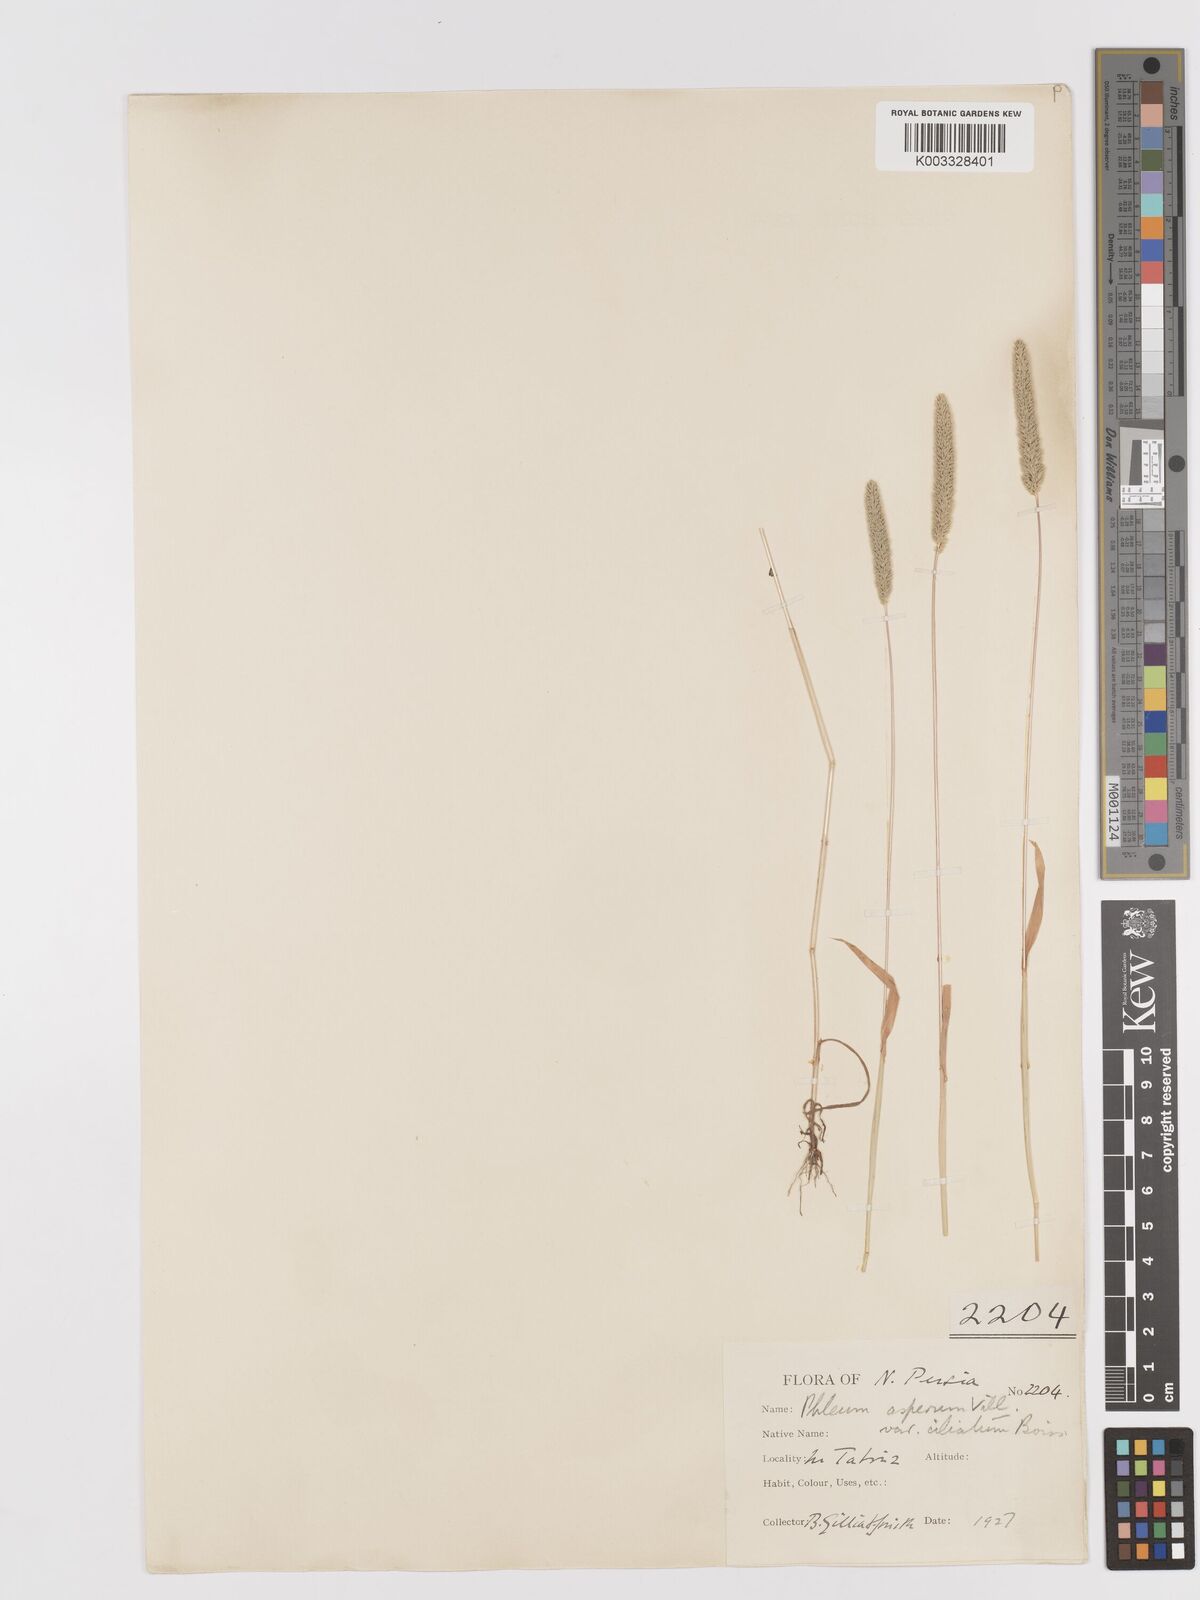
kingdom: Plantae
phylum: Tracheophyta
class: Liliopsida
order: Poales
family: Poaceae
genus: Phleum
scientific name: Phleum paniculatum
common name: British timothy
